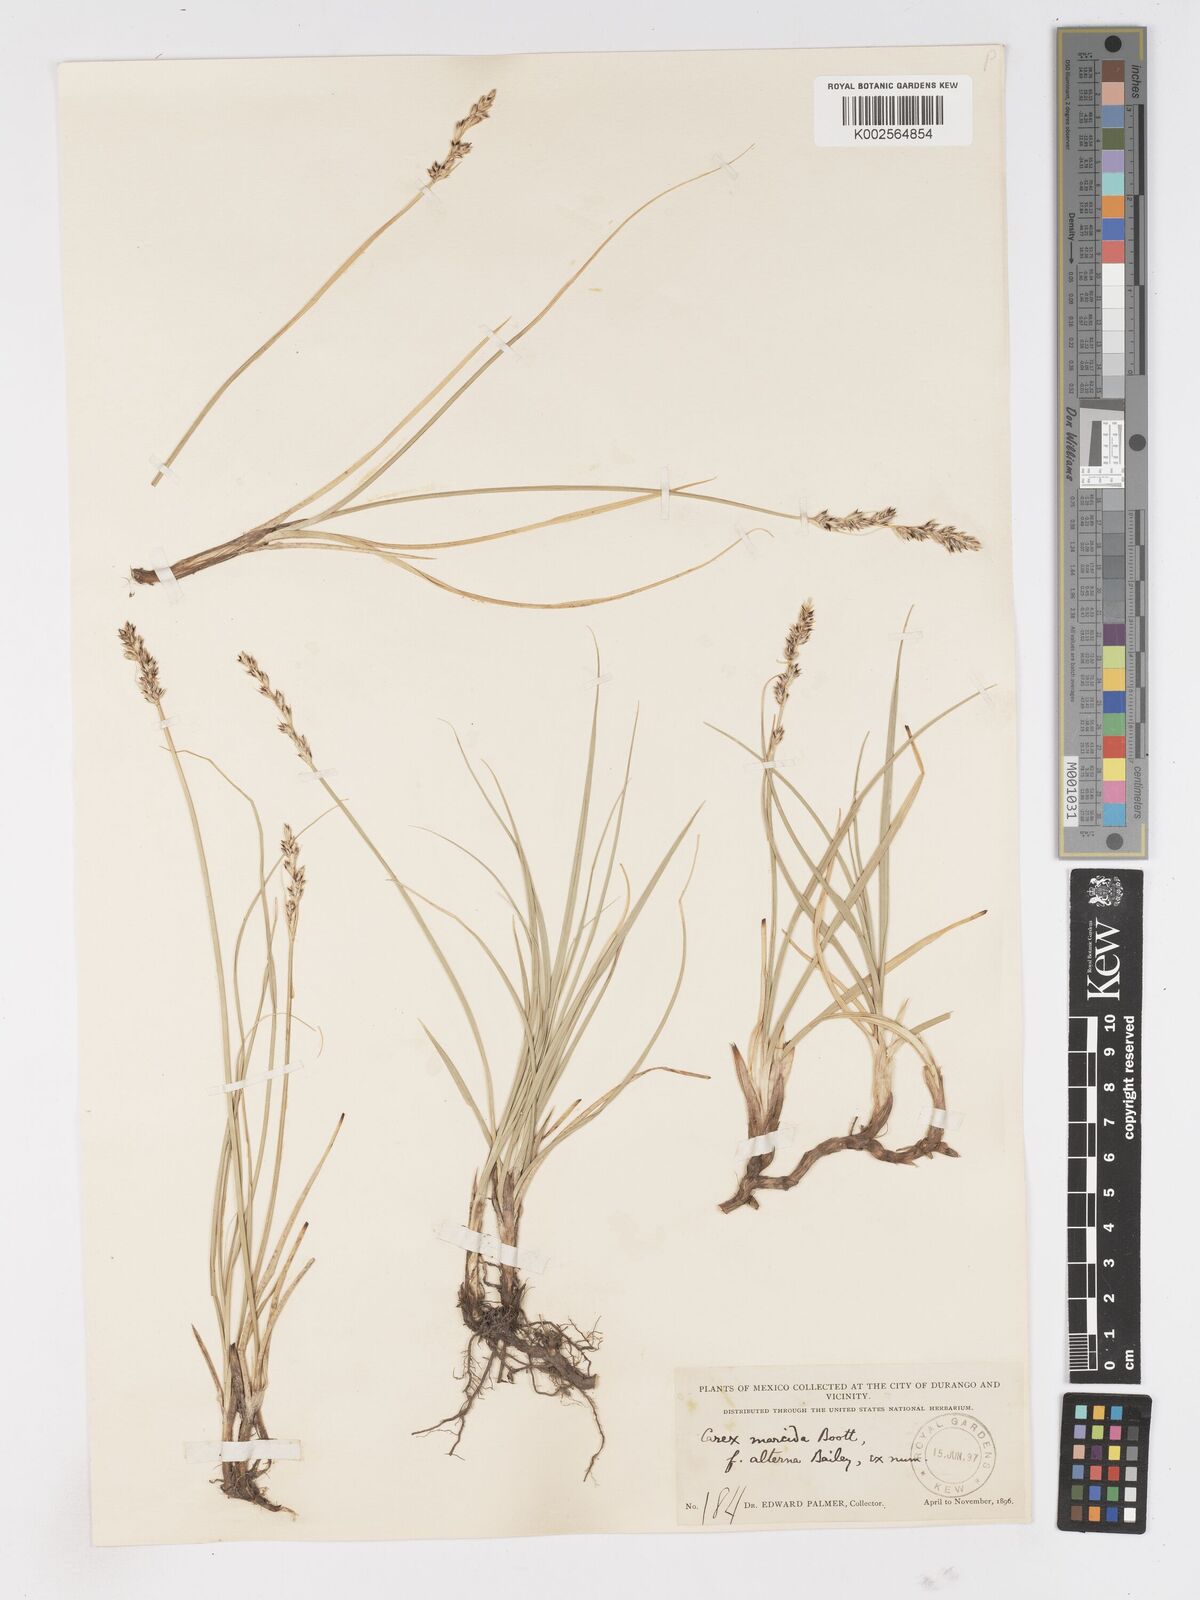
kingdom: Plantae
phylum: Tracheophyta
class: Liliopsida
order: Poales
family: Cyperaceae
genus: Carex
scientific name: Carex praegracilis
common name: Black creeper sedge
